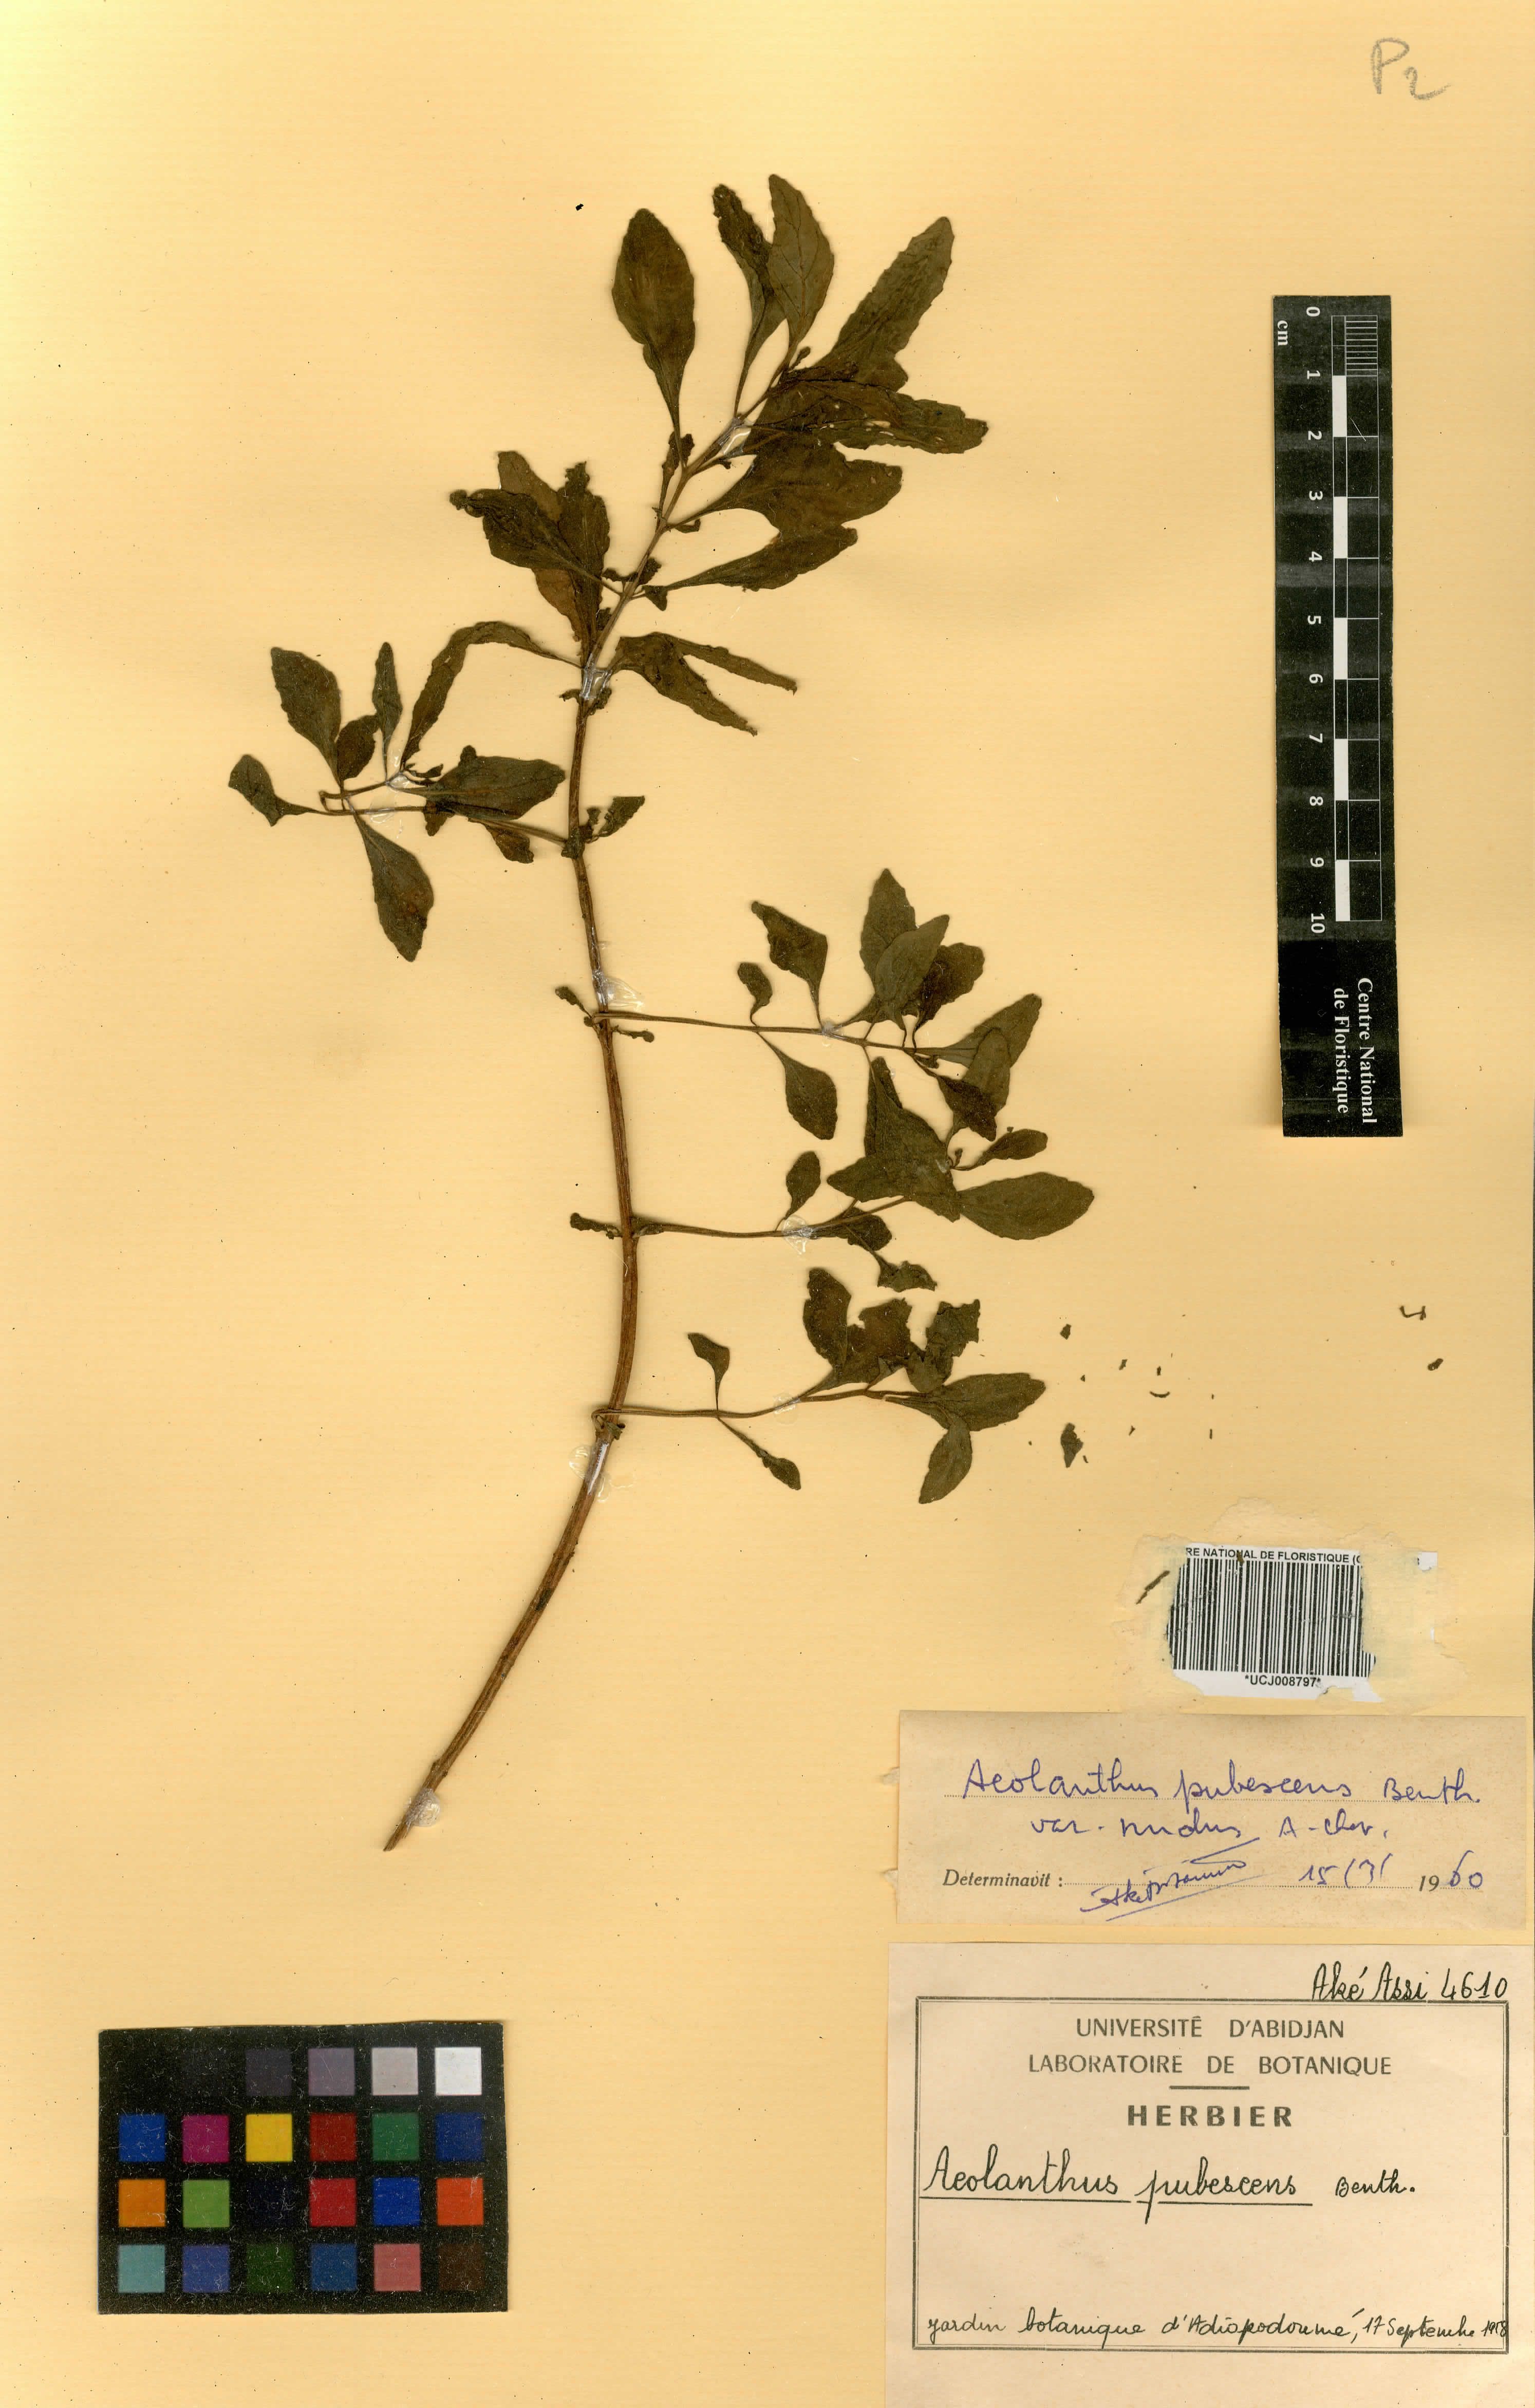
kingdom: Plantae
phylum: Tracheophyta
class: Magnoliopsida
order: Lamiales
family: Lamiaceae
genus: Aeollanthus
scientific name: Aeollanthus pubescens
